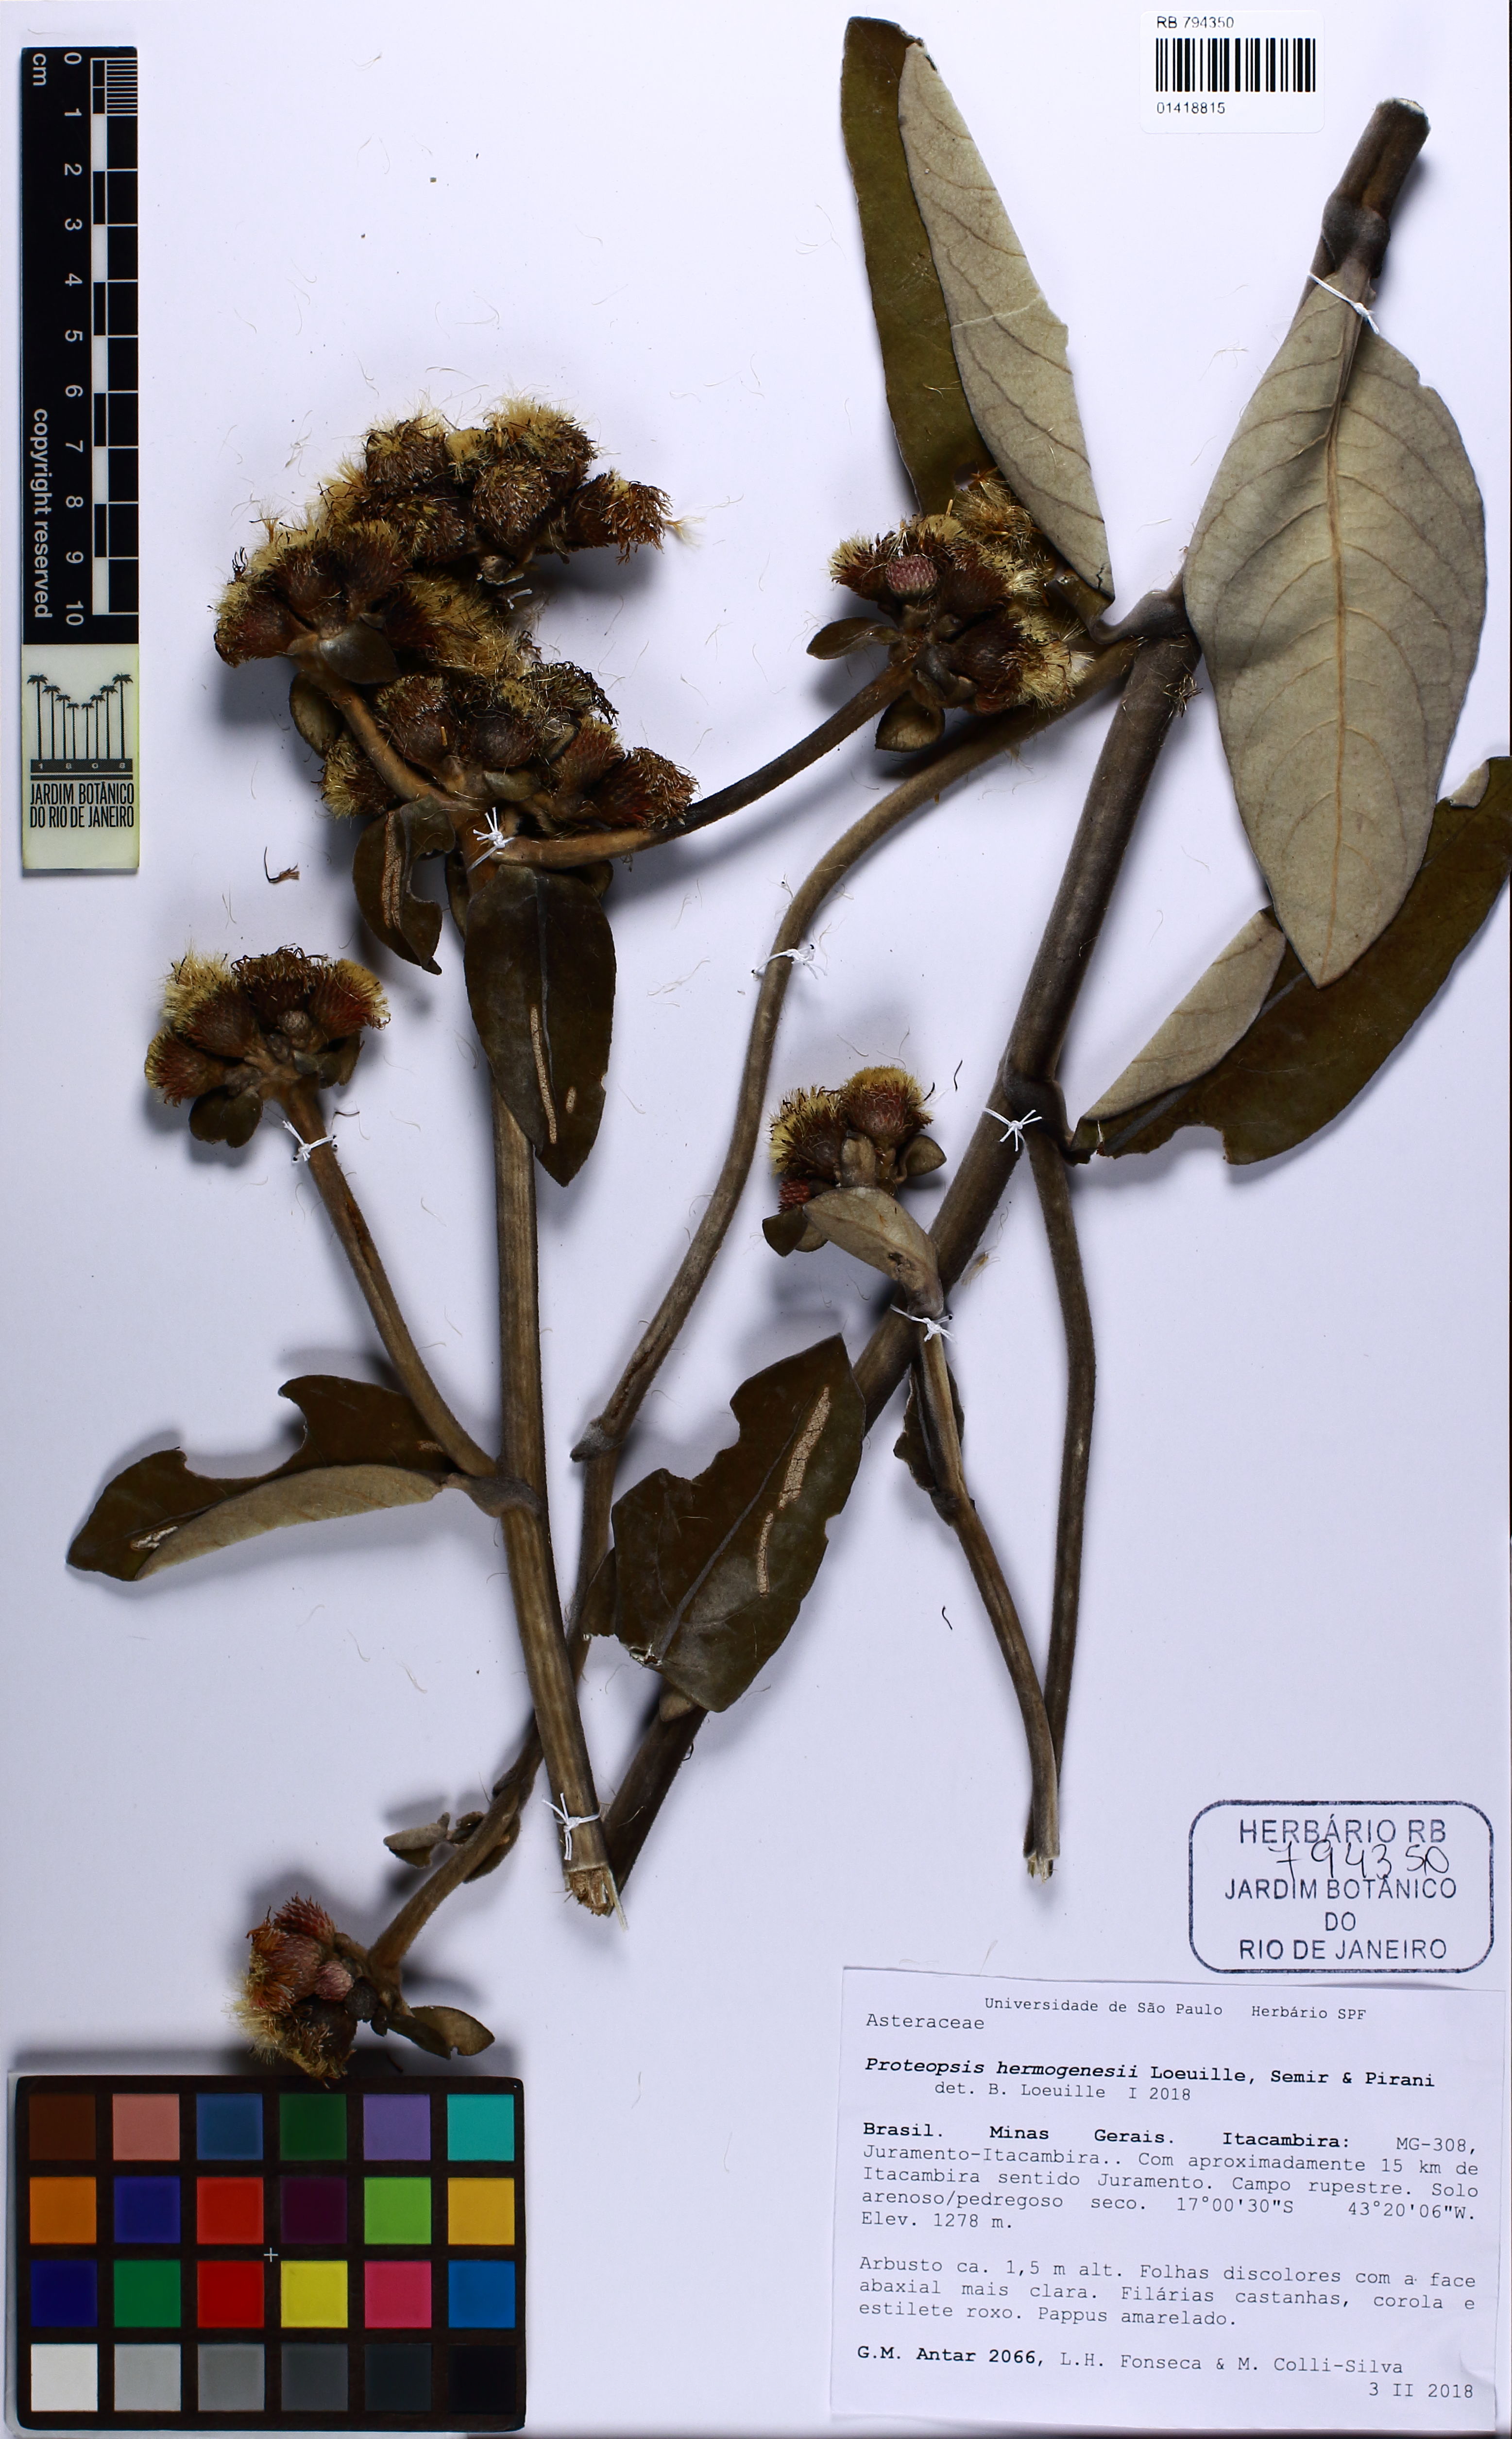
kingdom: Plantae
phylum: Tracheophyta
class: Magnoliopsida
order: Asterales
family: Asteraceae
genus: Proteopsis
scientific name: Proteopsis hermogenesii
